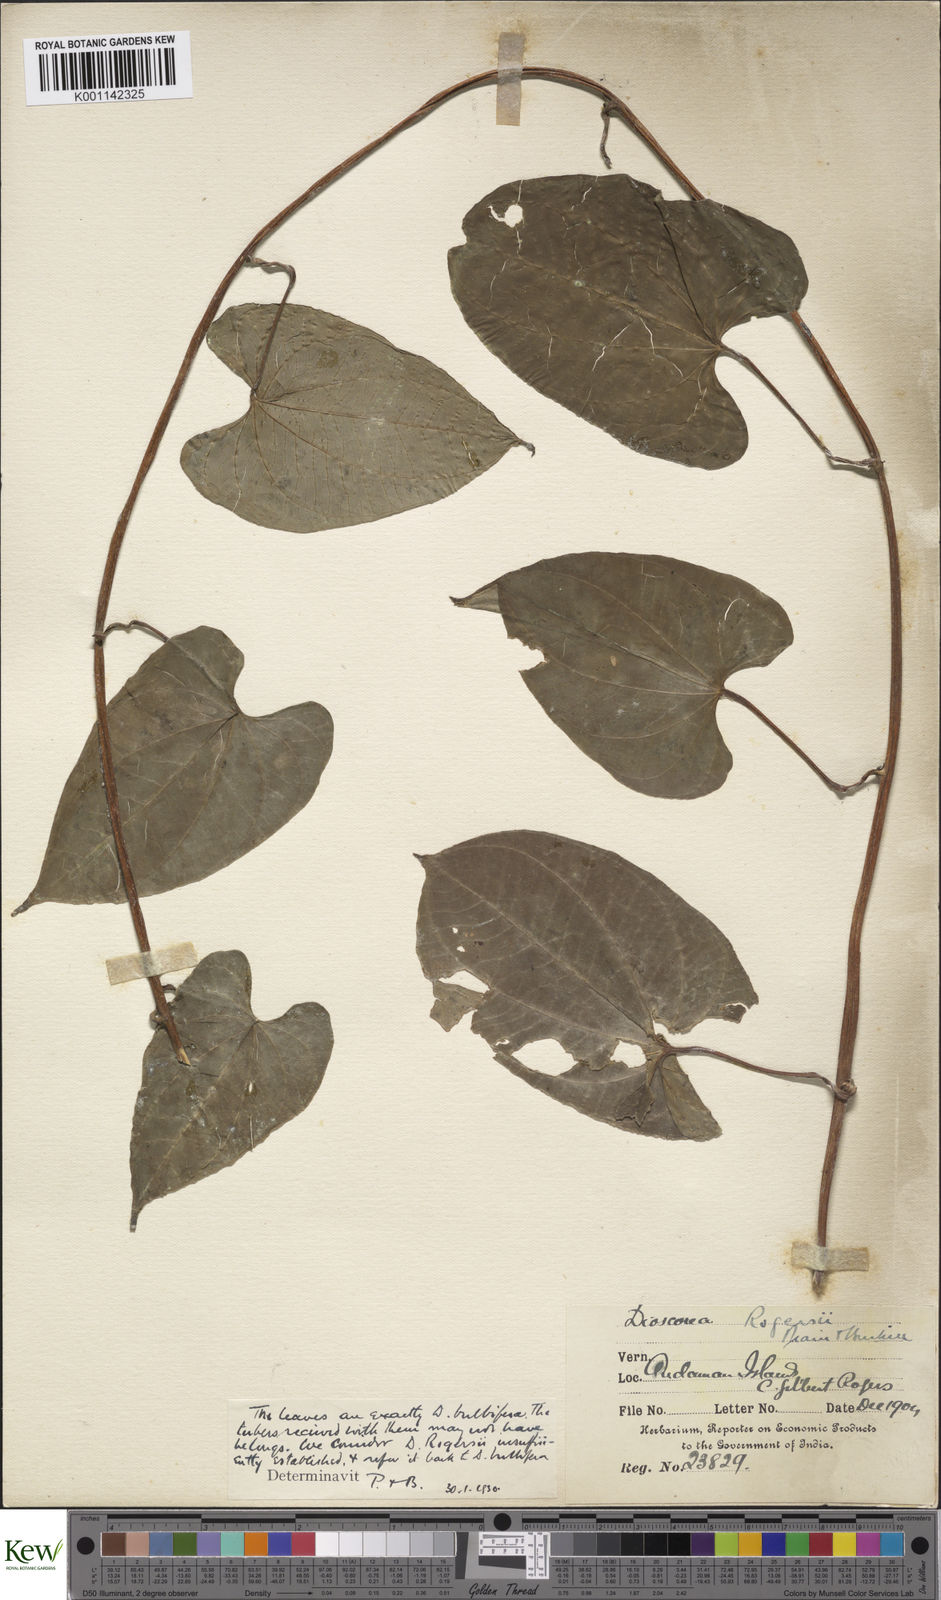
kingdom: Plantae
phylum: Tracheophyta
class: Liliopsida
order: Dioscoreales
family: Dioscoreaceae
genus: Dioscorea
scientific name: Dioscorea bulbifera
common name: Air yam
